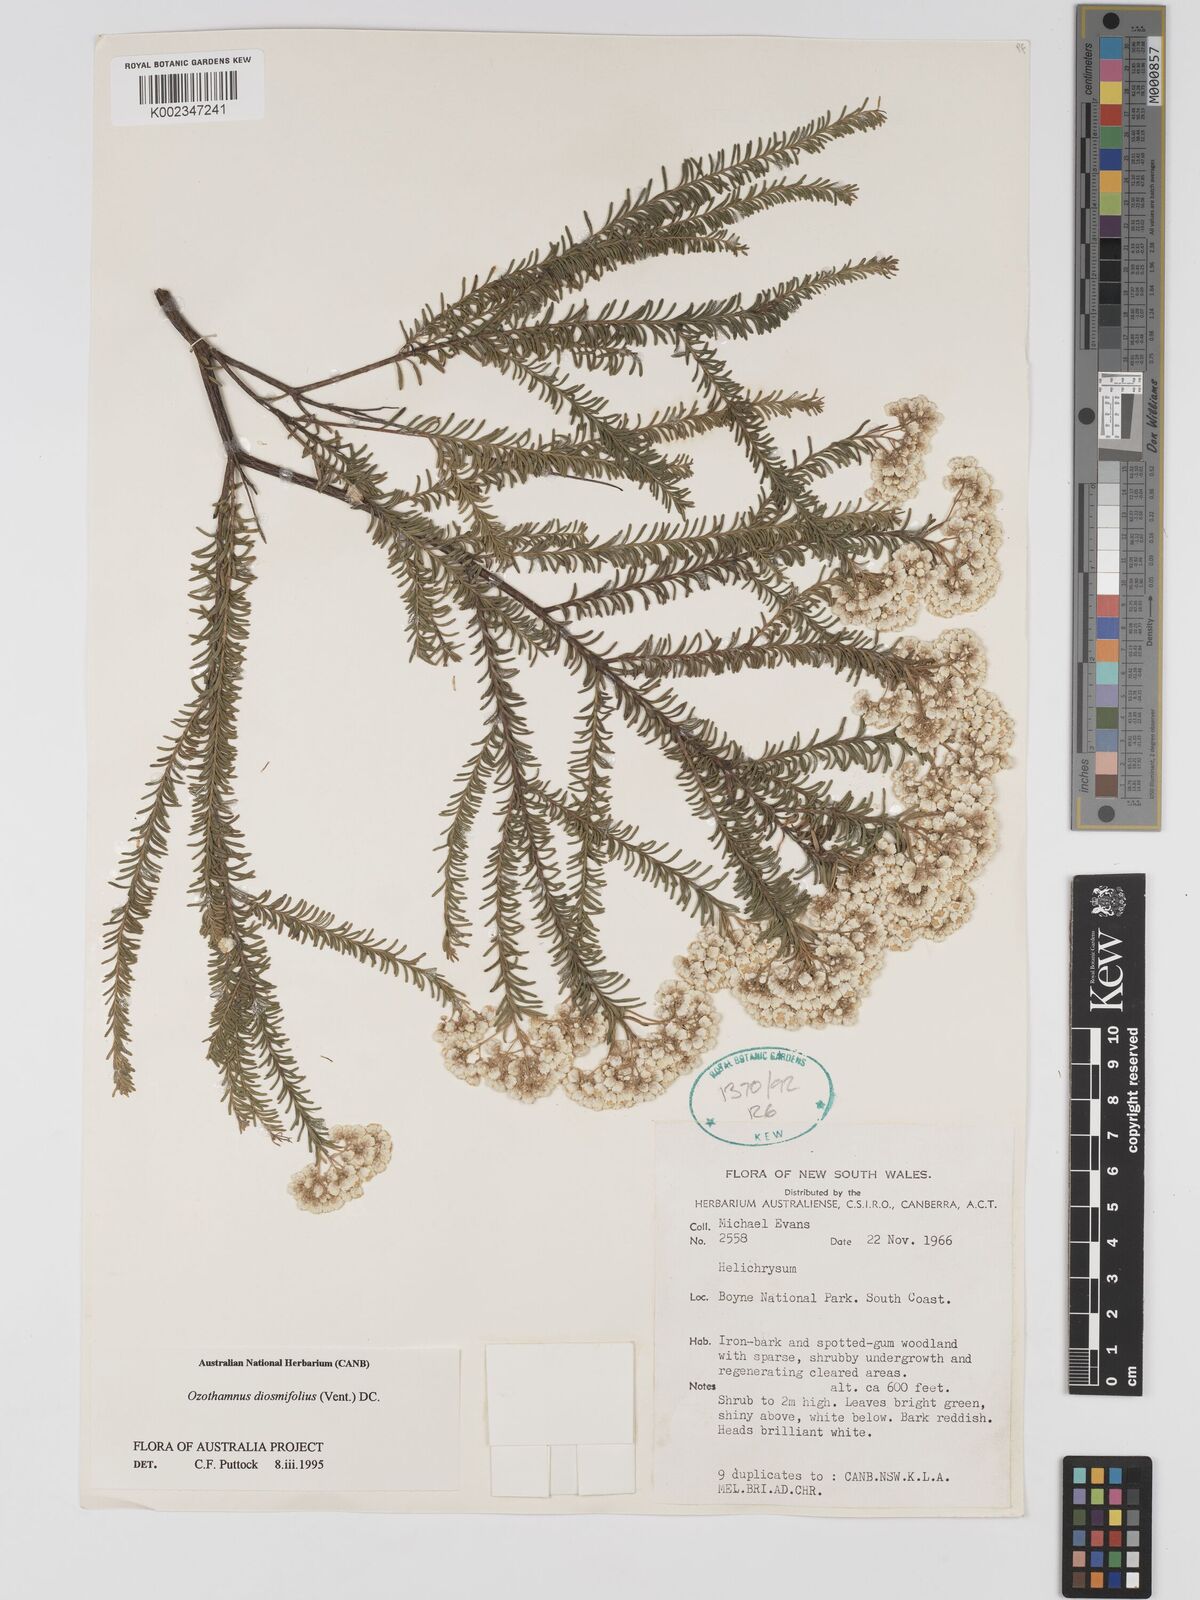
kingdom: Plantae
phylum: Tracheophyta
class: Magnoliopsida
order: Asterales
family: Asteraceae
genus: Ozothamnus
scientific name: Ozothamnus diosmifolius
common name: White-dogwood
